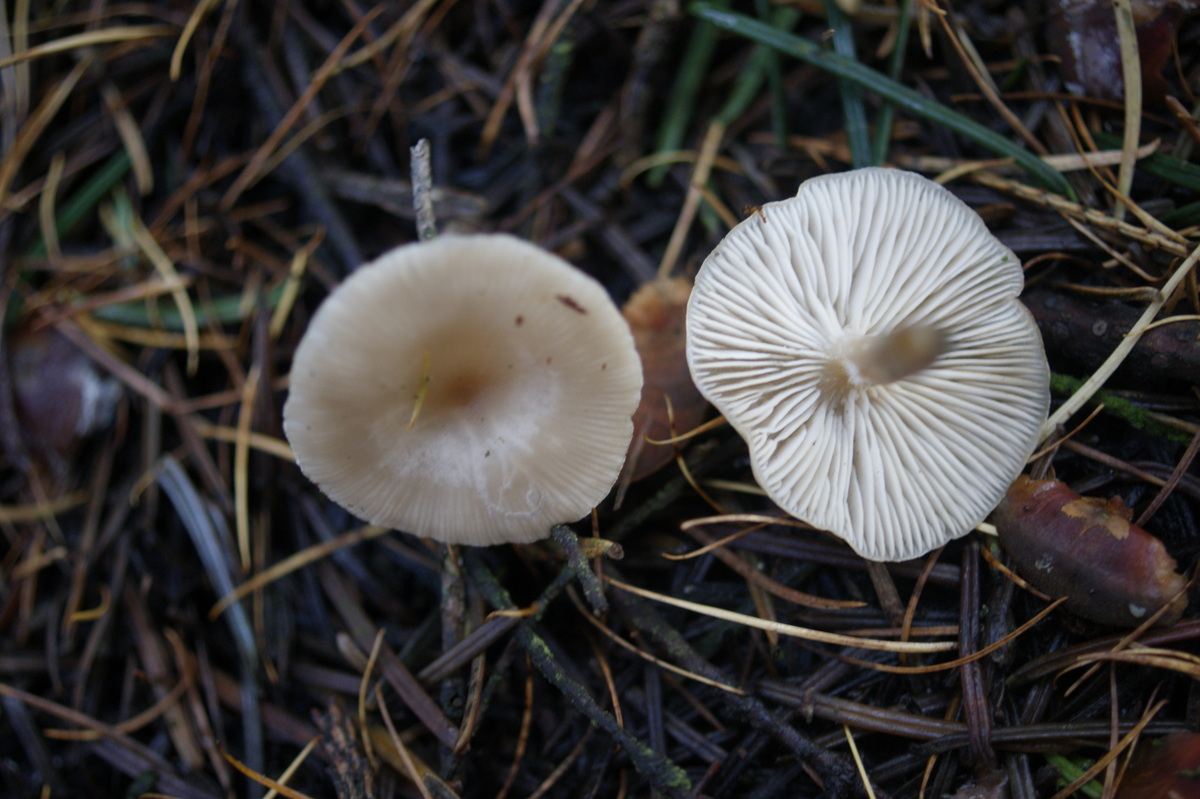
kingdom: Fungi
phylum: Basidiomycota
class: Agaricomycetes
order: Agaricales
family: Tricholomataceae
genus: Clitocybe
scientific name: Clitocybe vibecina
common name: randstribet tragthat
